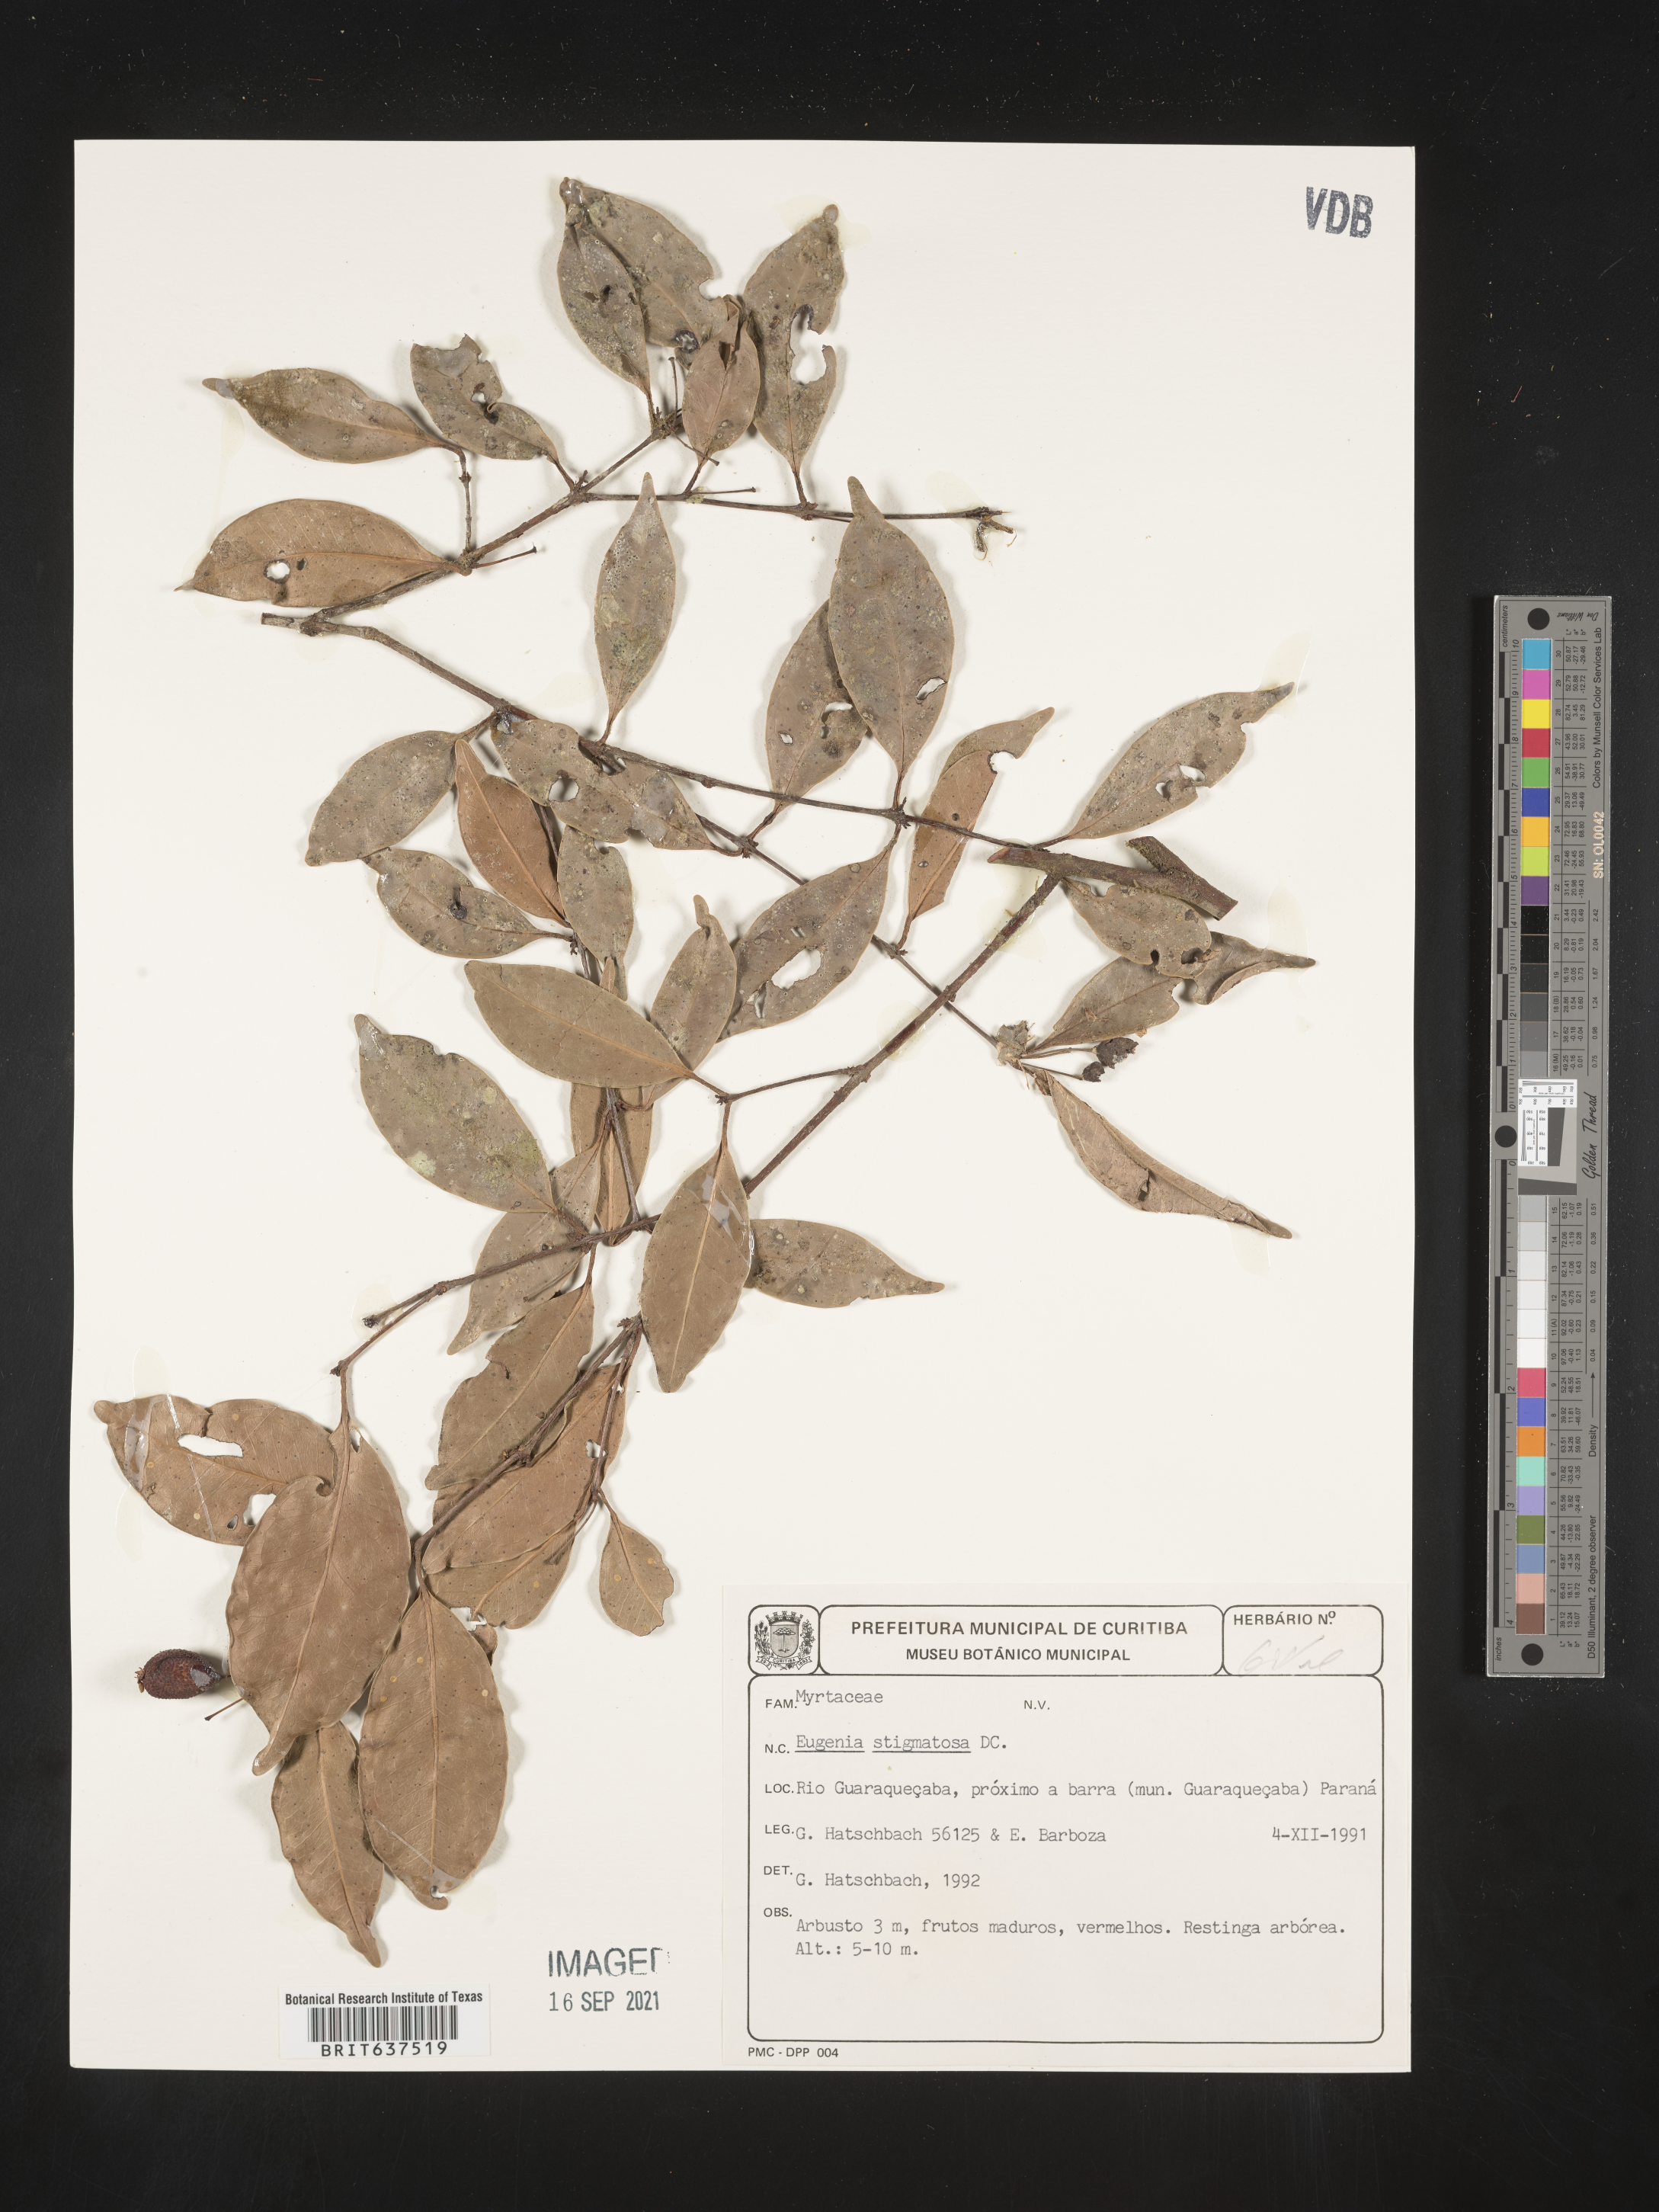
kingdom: Plantae
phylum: Tracheophyta
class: Magnoliopsida
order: Myrtales
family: Myrtaceae
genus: Eugenia
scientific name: Eugenia
